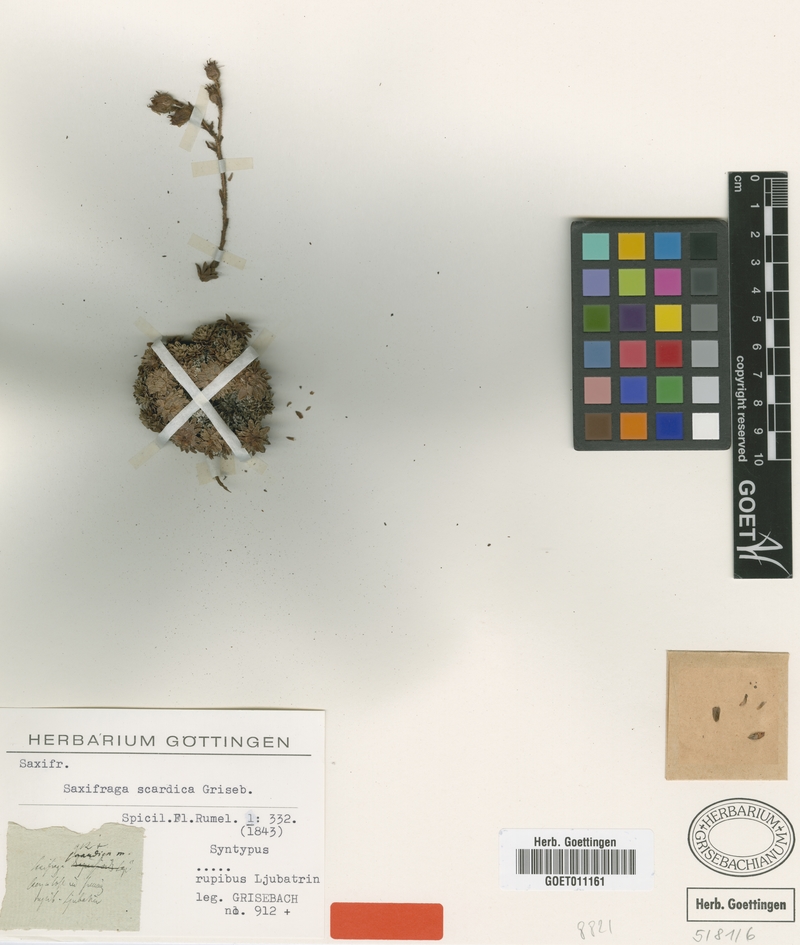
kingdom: Plantae
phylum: Tracheophyta
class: Magnoliopsida
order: Saxifragales
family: Saxifragaceae
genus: Saxifraga
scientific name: Saxifraga scardica
